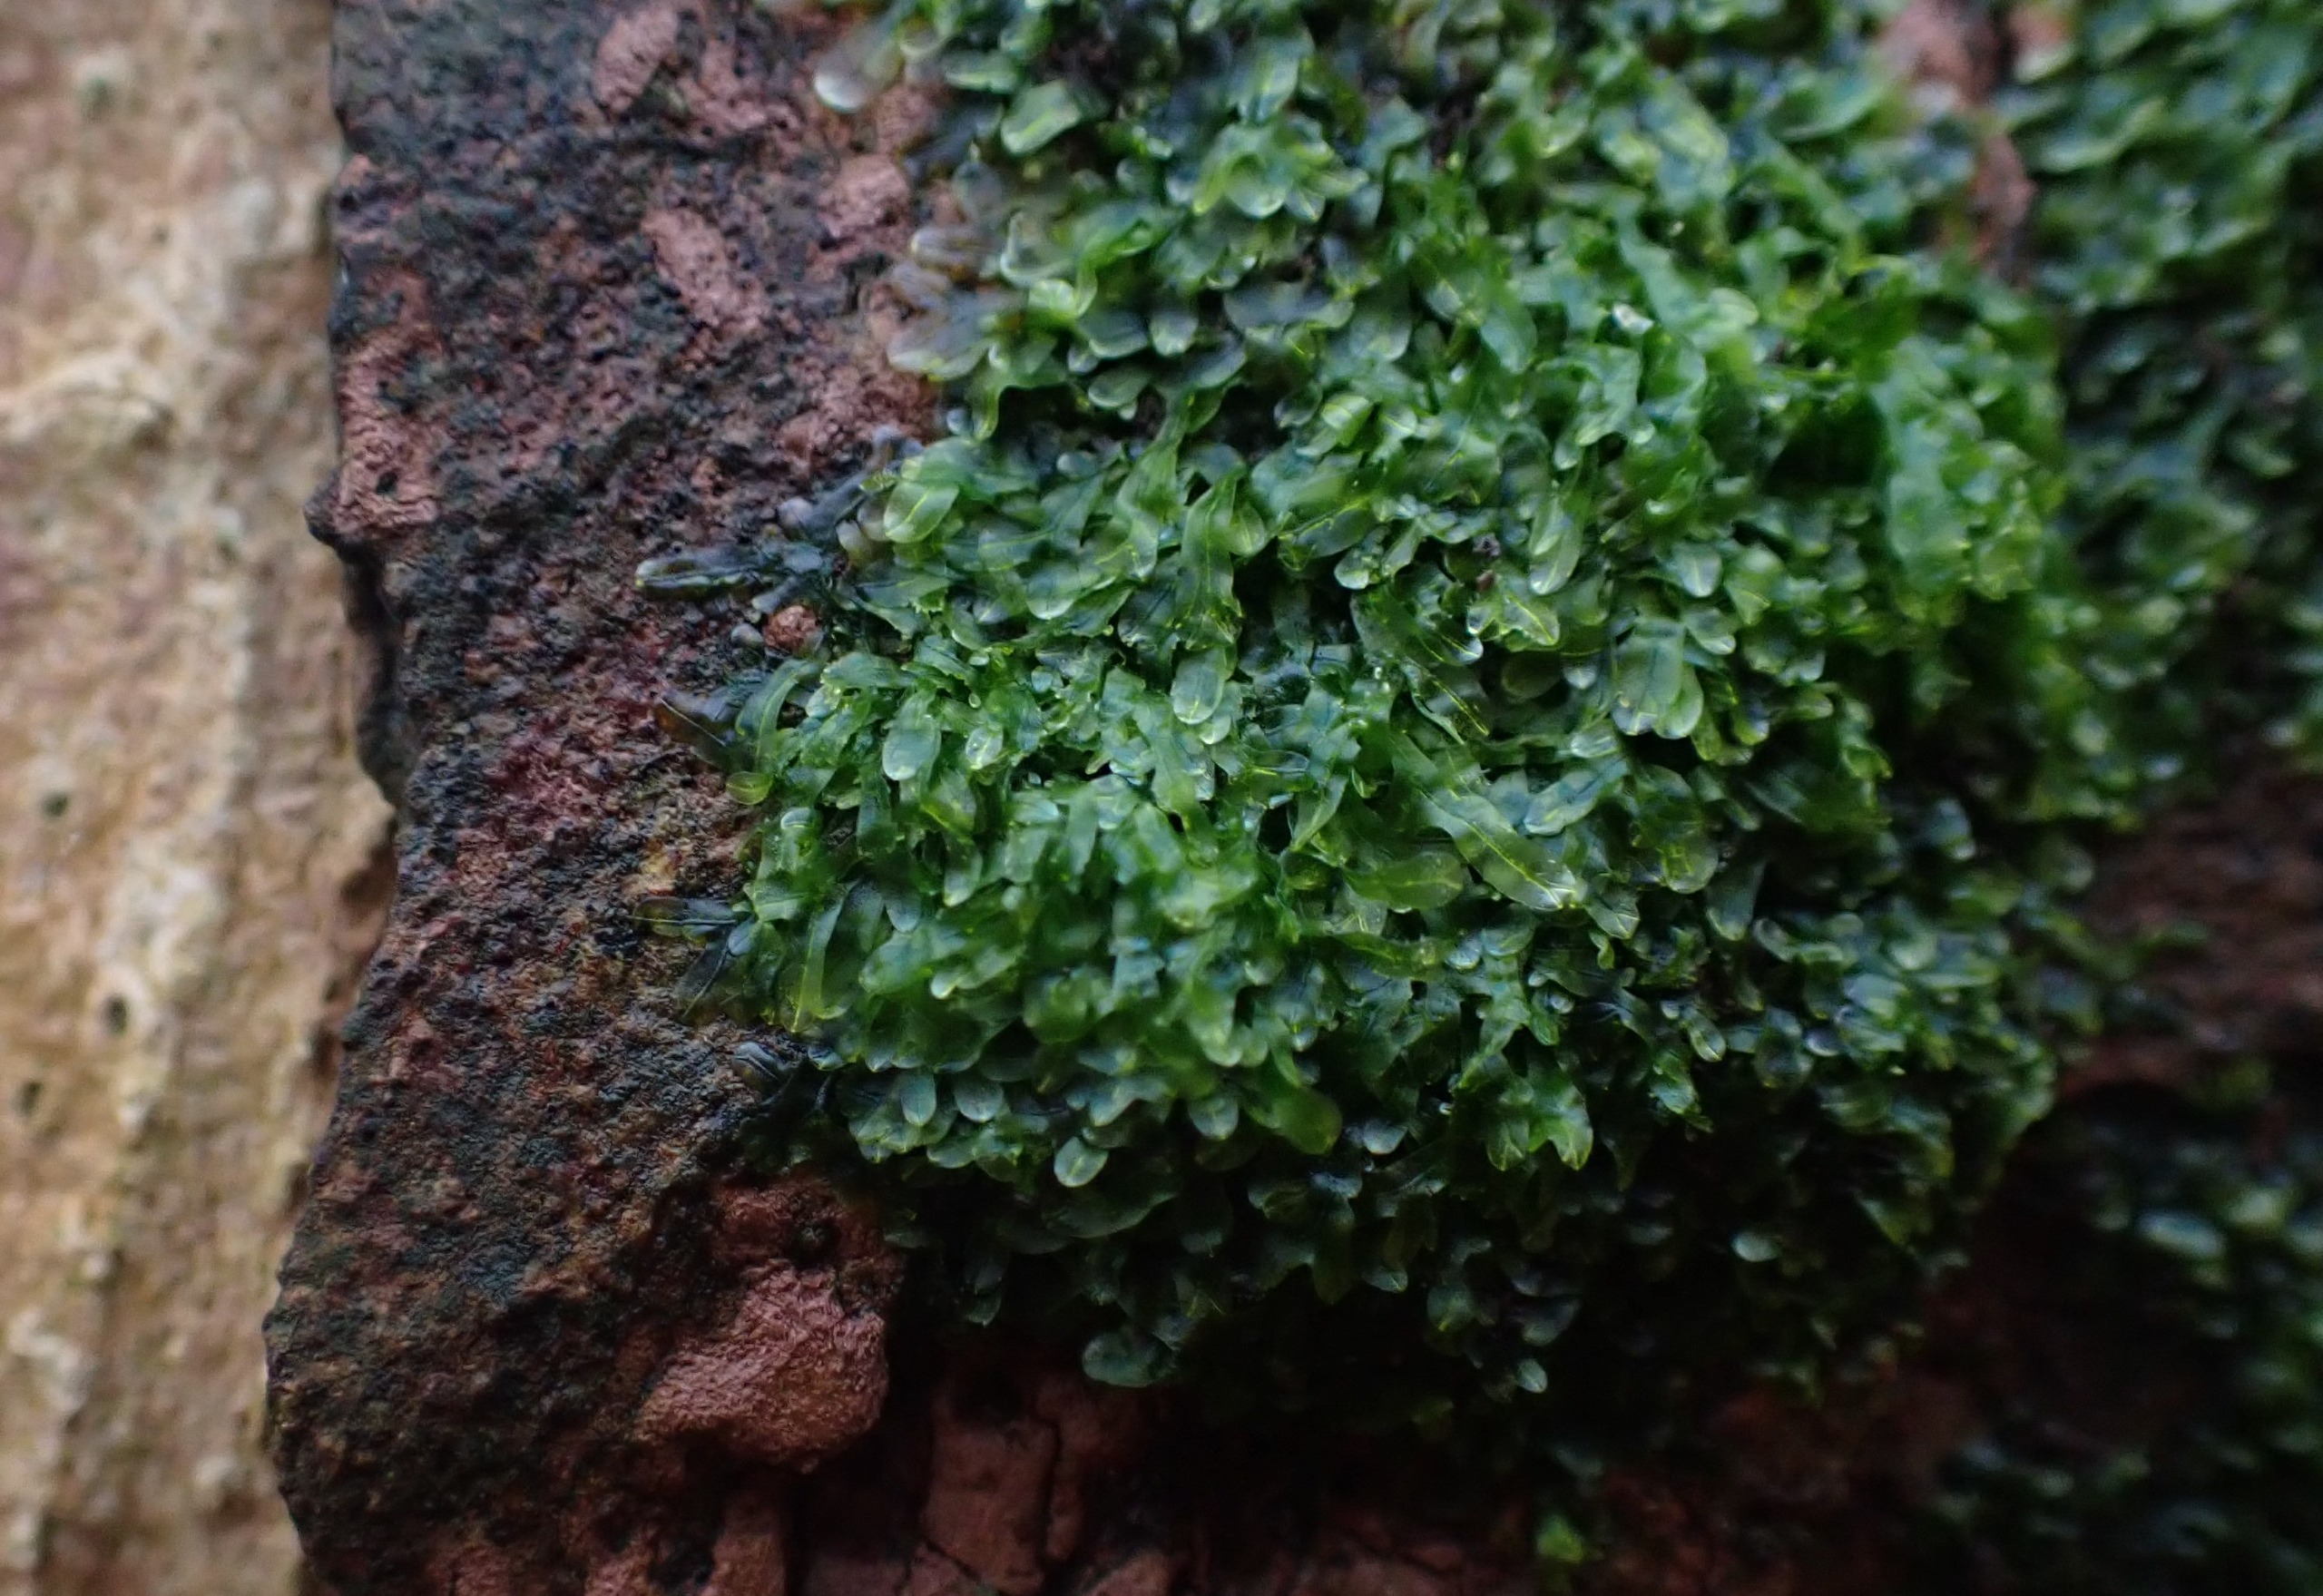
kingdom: Plantae
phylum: Marchantiophyta
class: Jungermanniopsida
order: Metzgeriales
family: Metzgeriaceae
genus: Metzgeria
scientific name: Metzgeria furcata
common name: Almindelig gaffelløv
